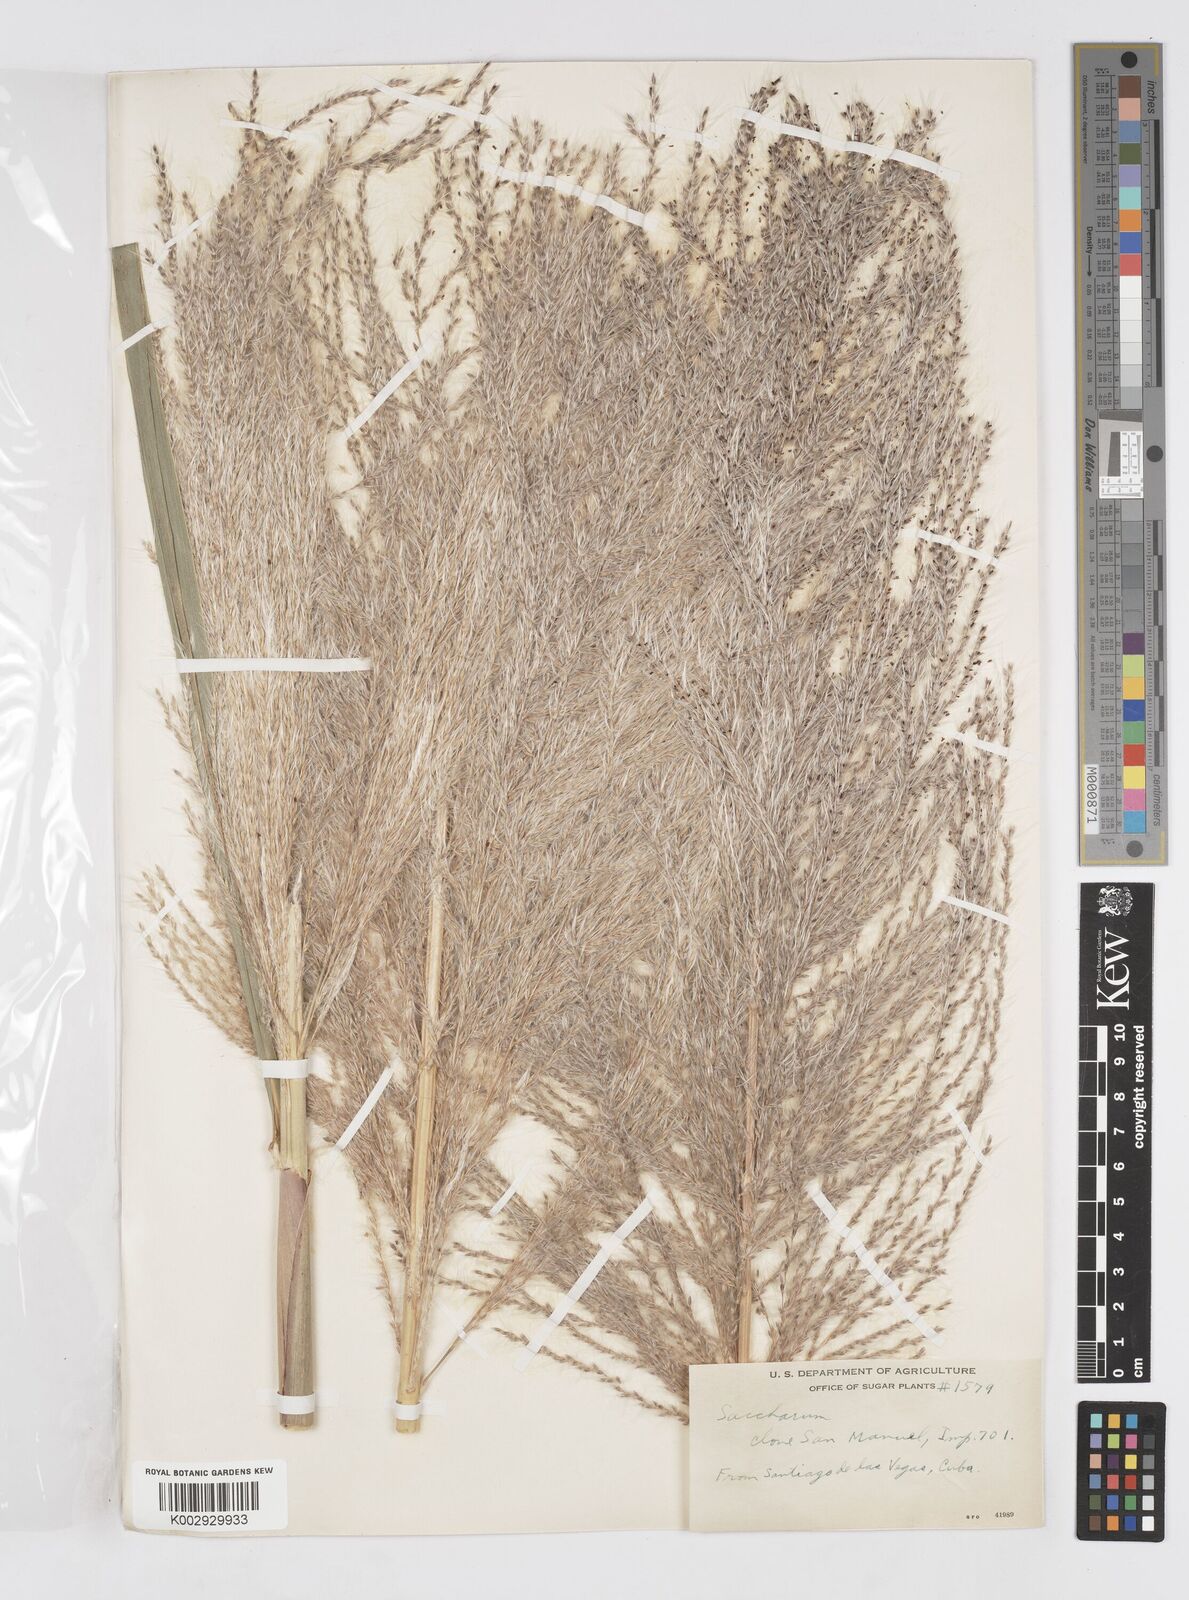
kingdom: Plantae
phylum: Tracheophyta
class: Liliopsida
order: Poales
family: Poaceae
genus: Saccharum
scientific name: Saccharum officinarum
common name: Sugarcane
